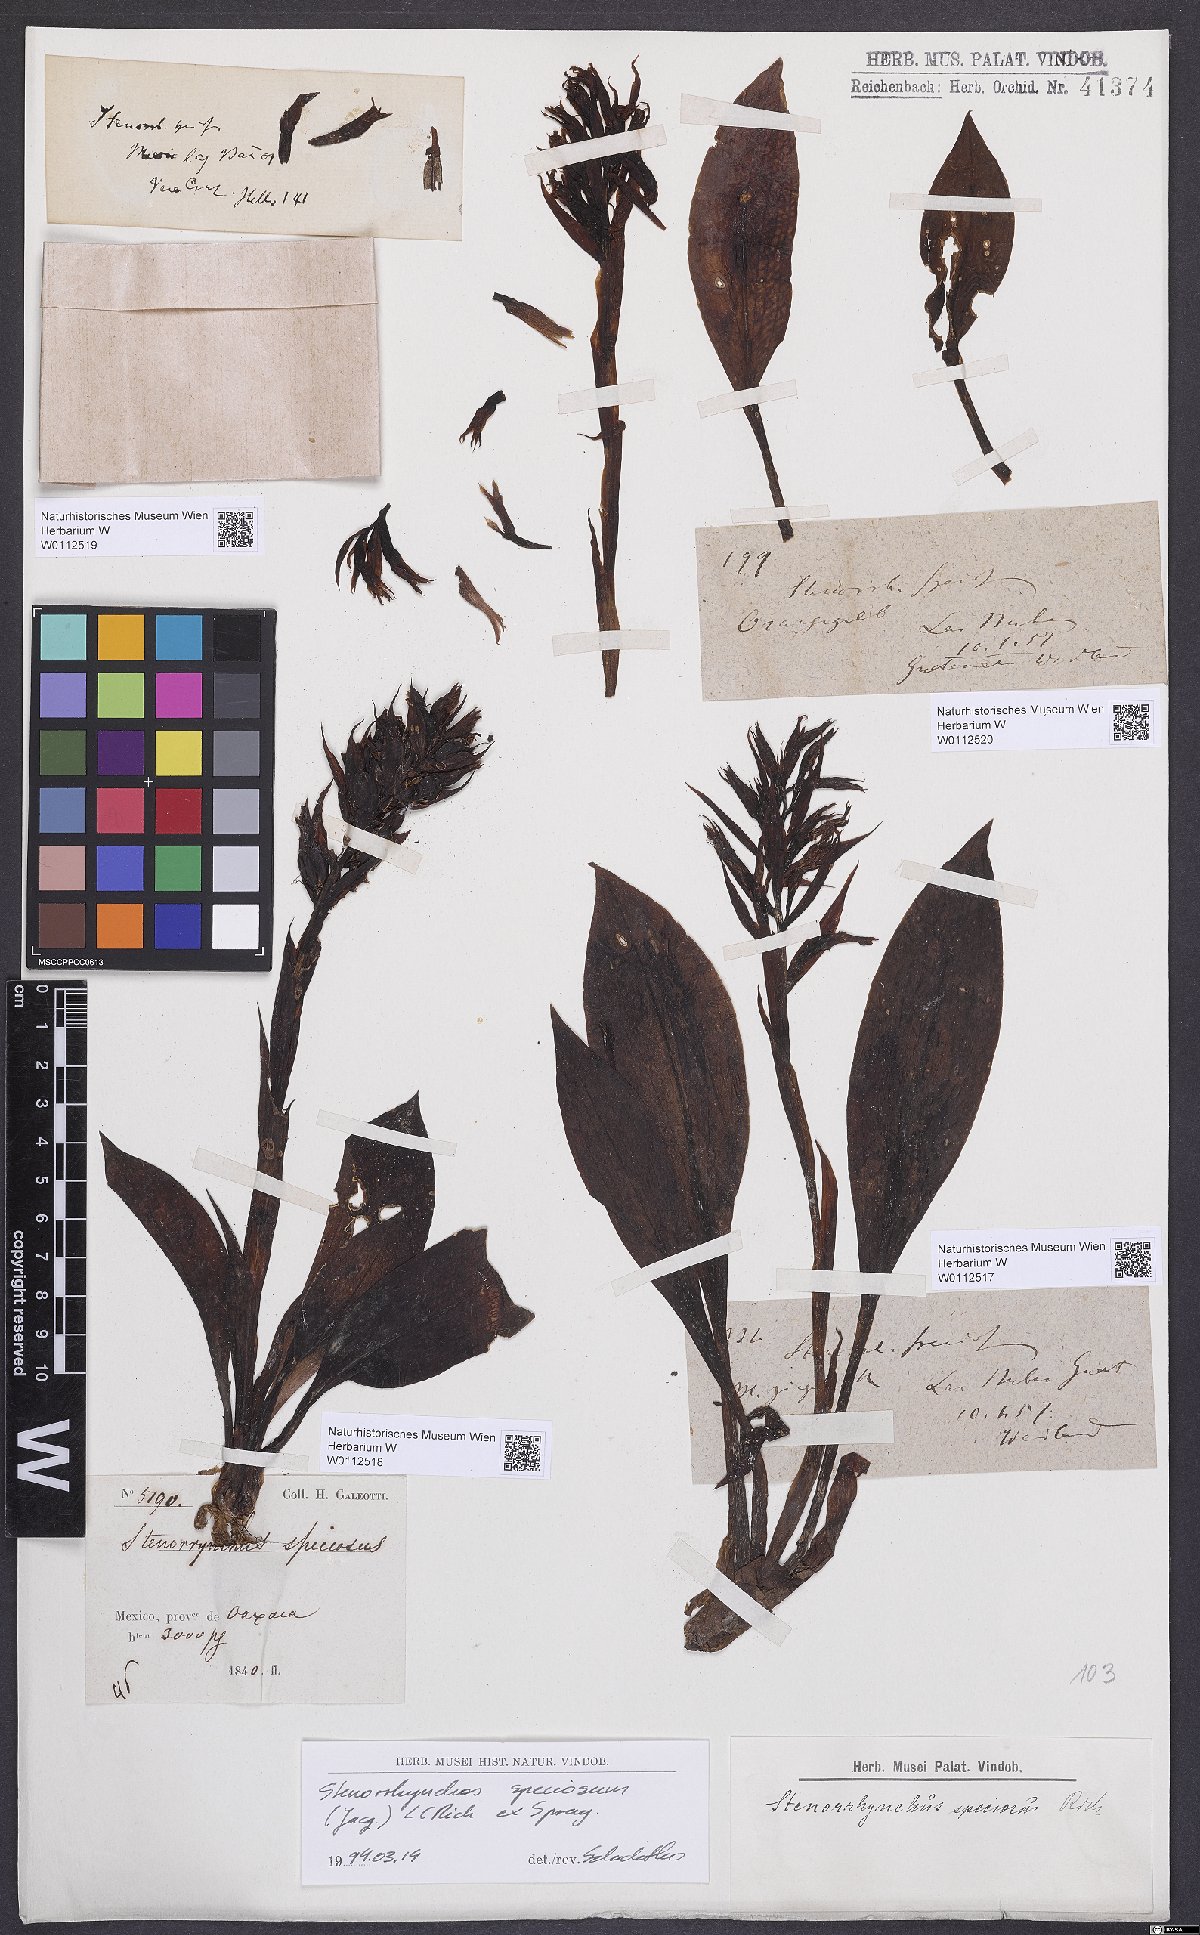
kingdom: Plantae
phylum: Tracheophyta
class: Liliopsida
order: Asparagales
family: Orchidaceae
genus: Stenorrhynchos
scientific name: Stenorrhynchos speciosum
